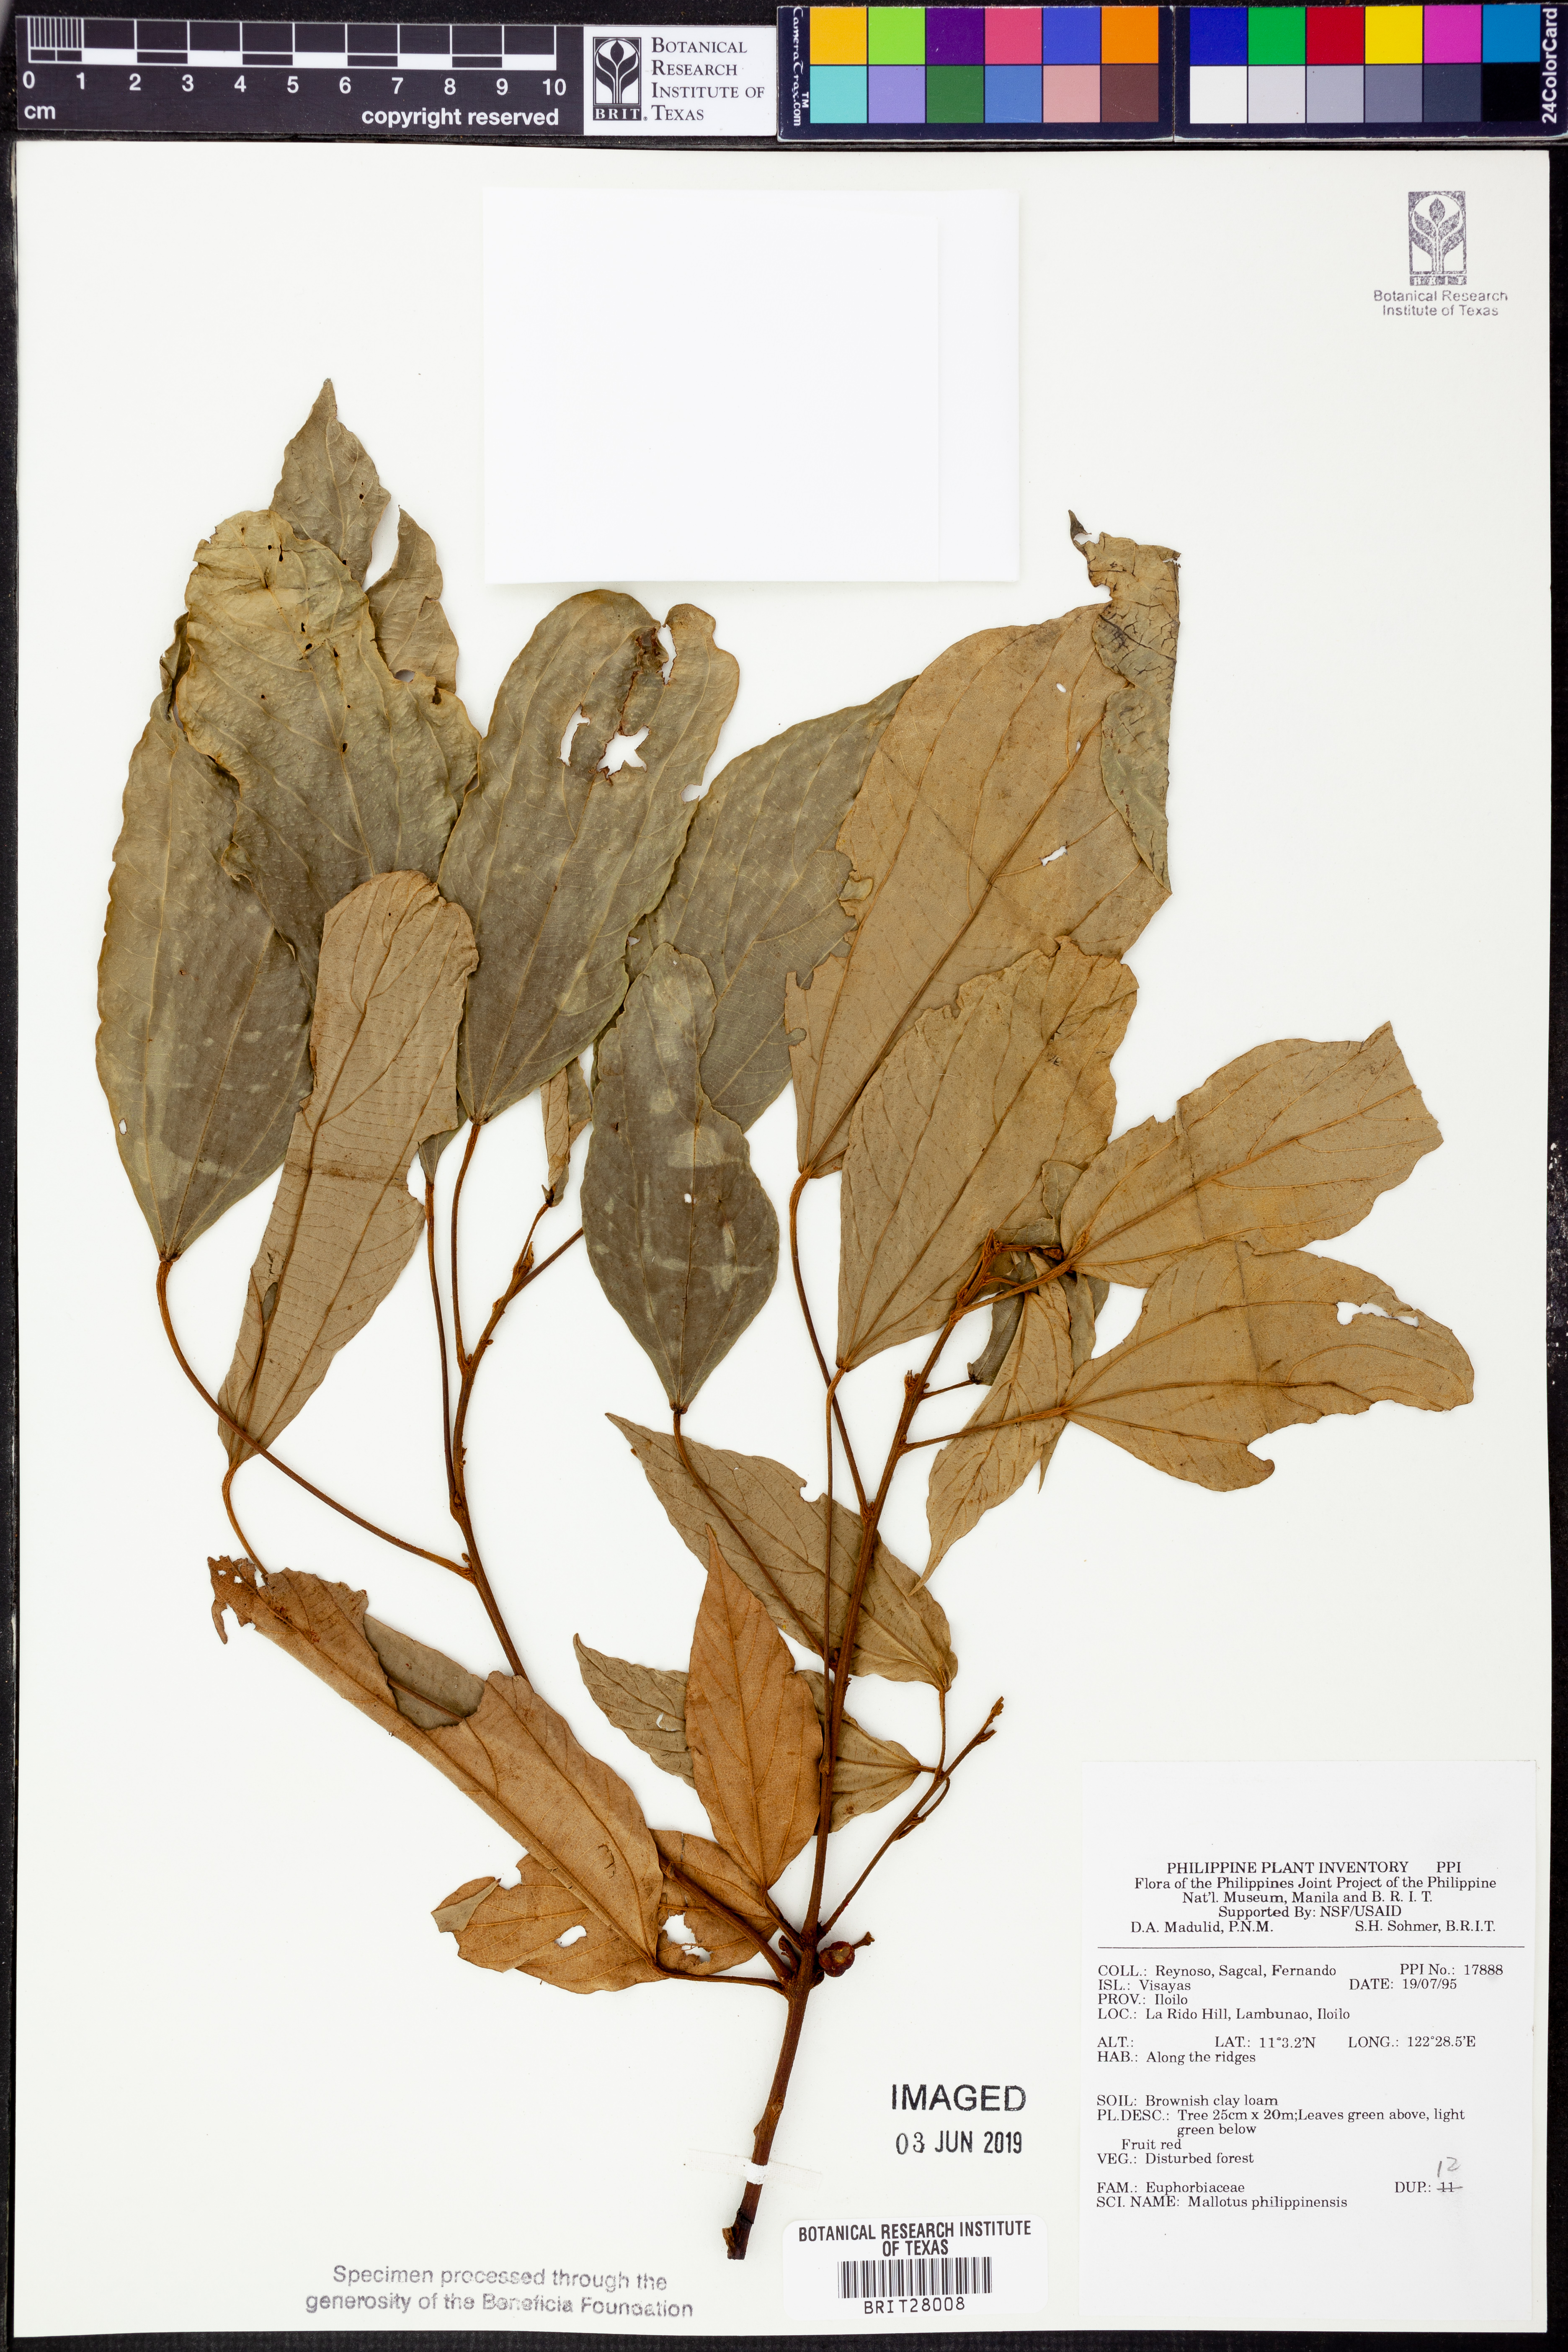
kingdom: Plantae
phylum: Tracheophyta
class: Magnoliopsida
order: Malpighiales
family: Euphorbiaceae
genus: Mallotus
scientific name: Mallotus philippensis
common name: Kamala tree
